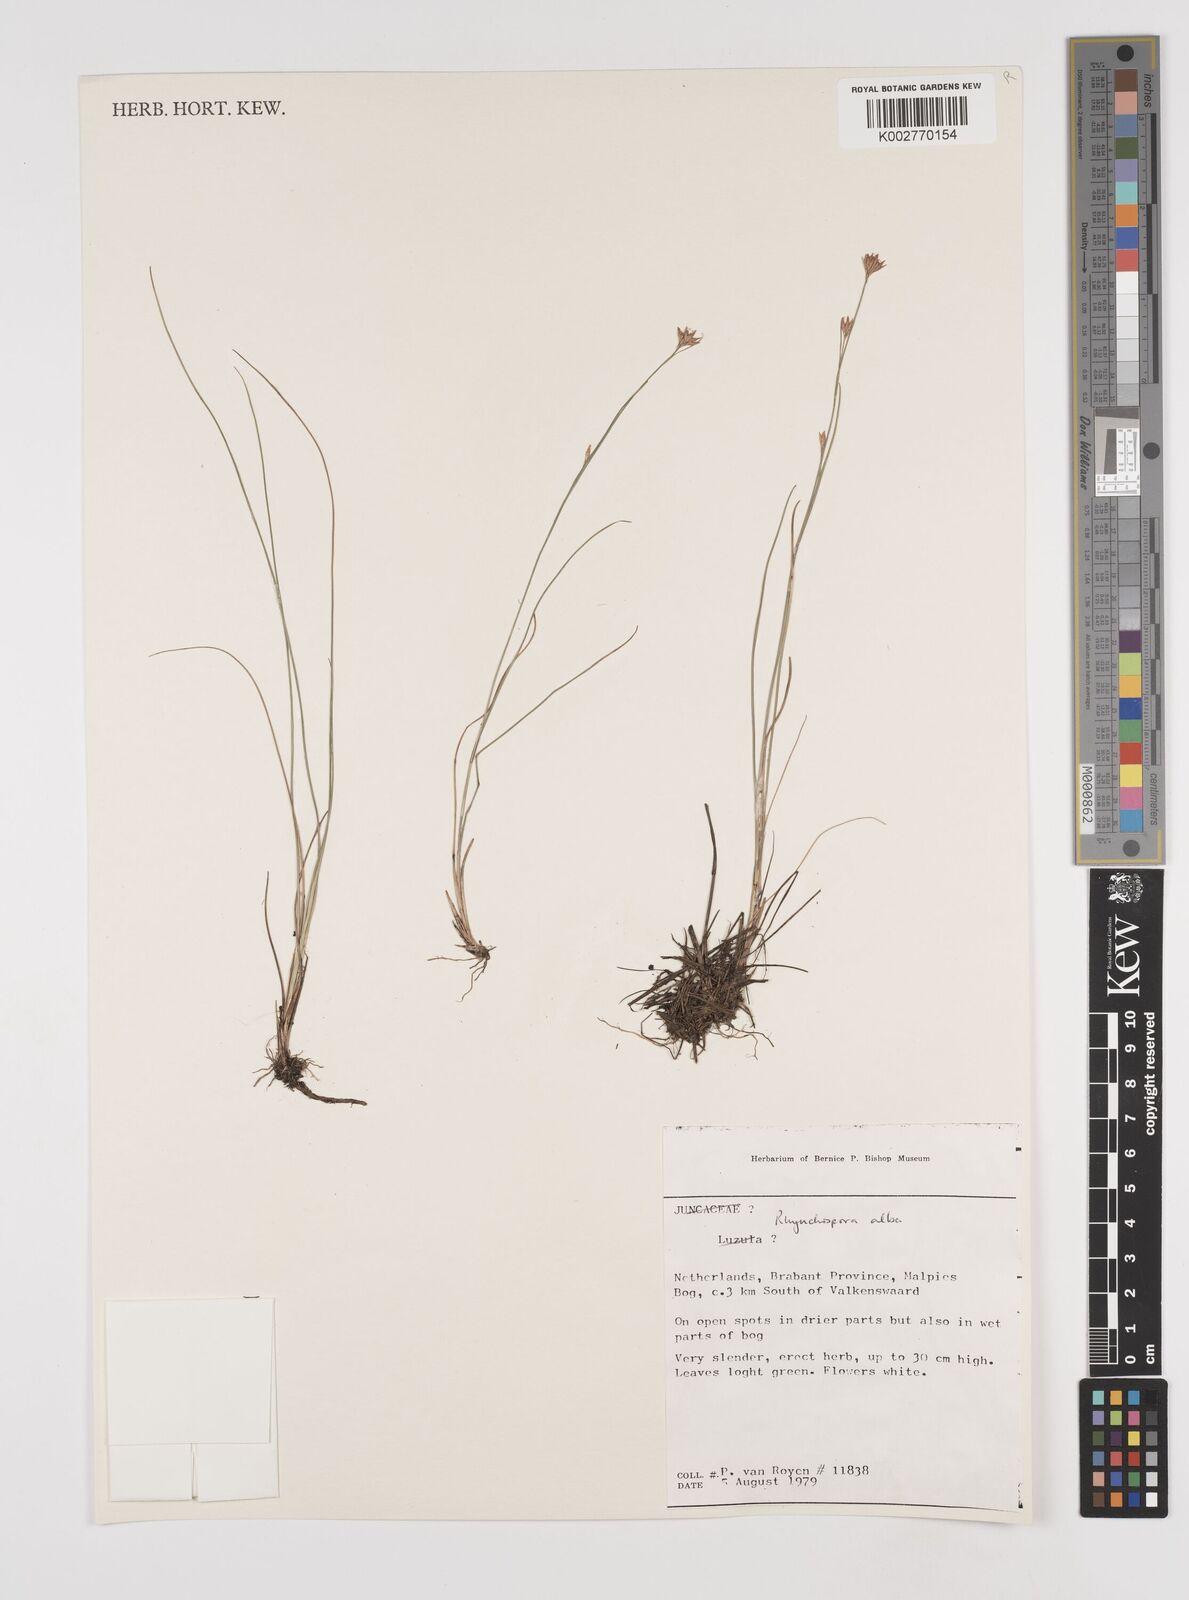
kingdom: Plantae
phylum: Tracheophyta
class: Liliopsida
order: Poales
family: Cyperaceae
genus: Rhynchospora
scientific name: Rhynchospora alba
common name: White beak-sedge
